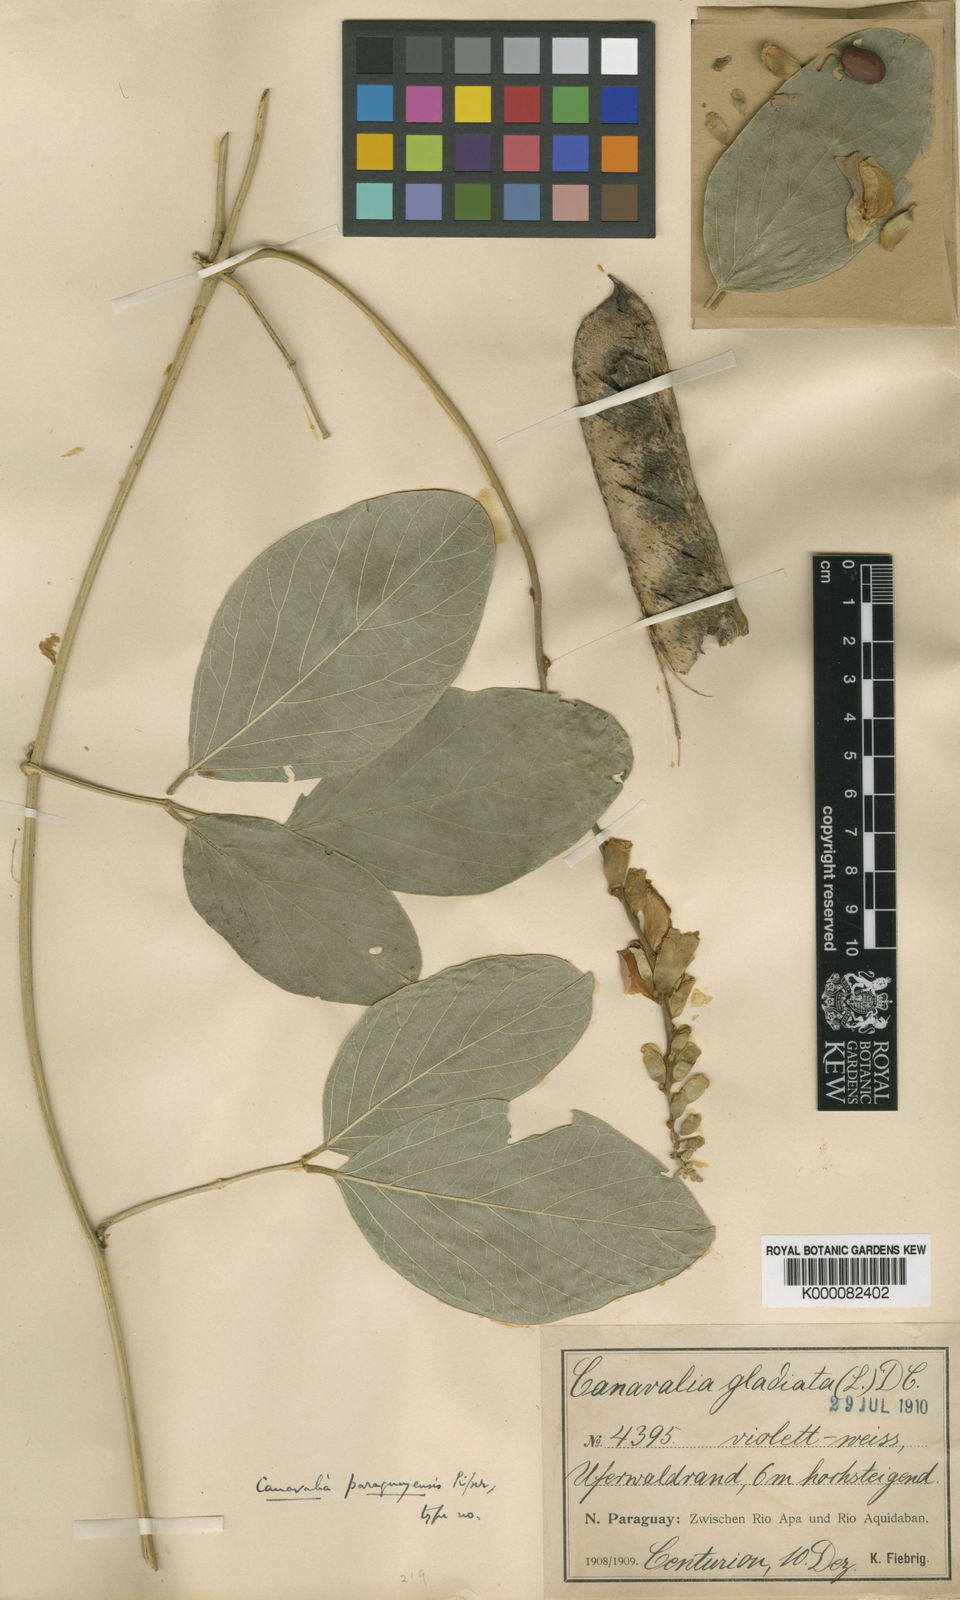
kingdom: Plantae
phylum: Tracheophyta
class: Magnoliopsida
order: Fabales
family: Fabaceae
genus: Canavalia
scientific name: Canavalia brasiliensis
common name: Barbicou-bean
